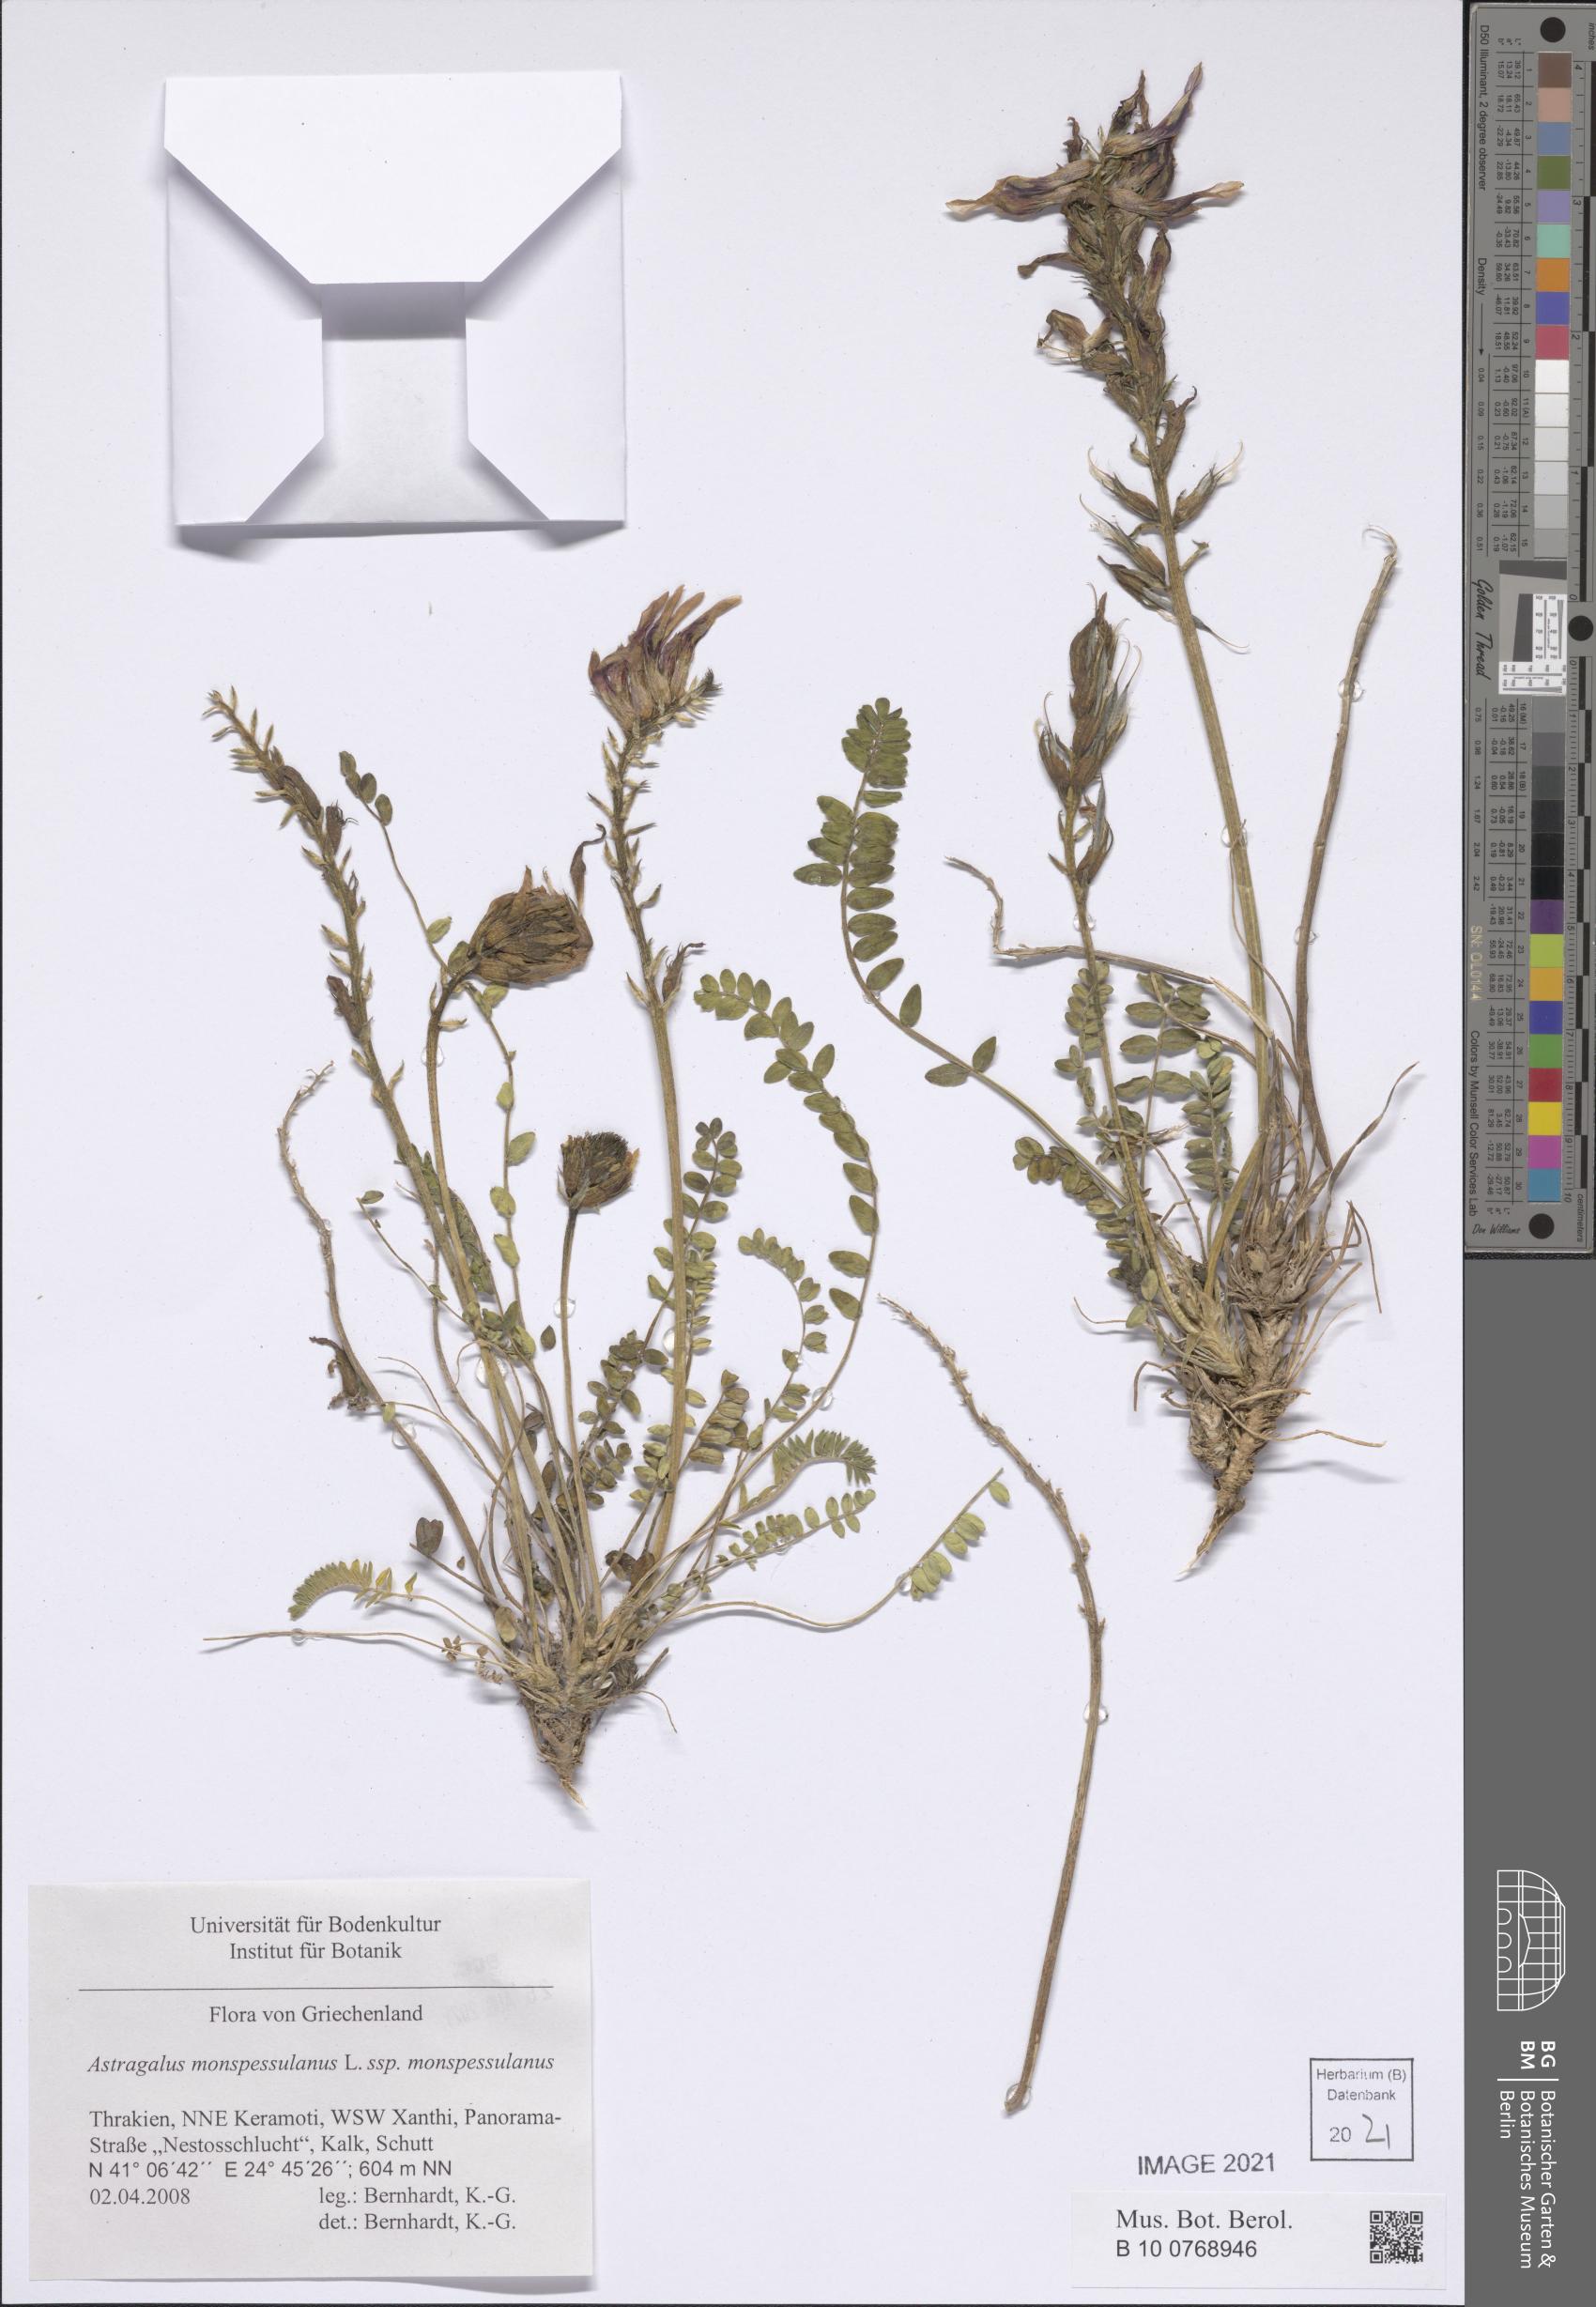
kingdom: Plantae
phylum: Tracheophyta
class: Magnoliopsida
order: Fabales
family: Fabaceae
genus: Astragalus
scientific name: Astragalus monspessulanus
